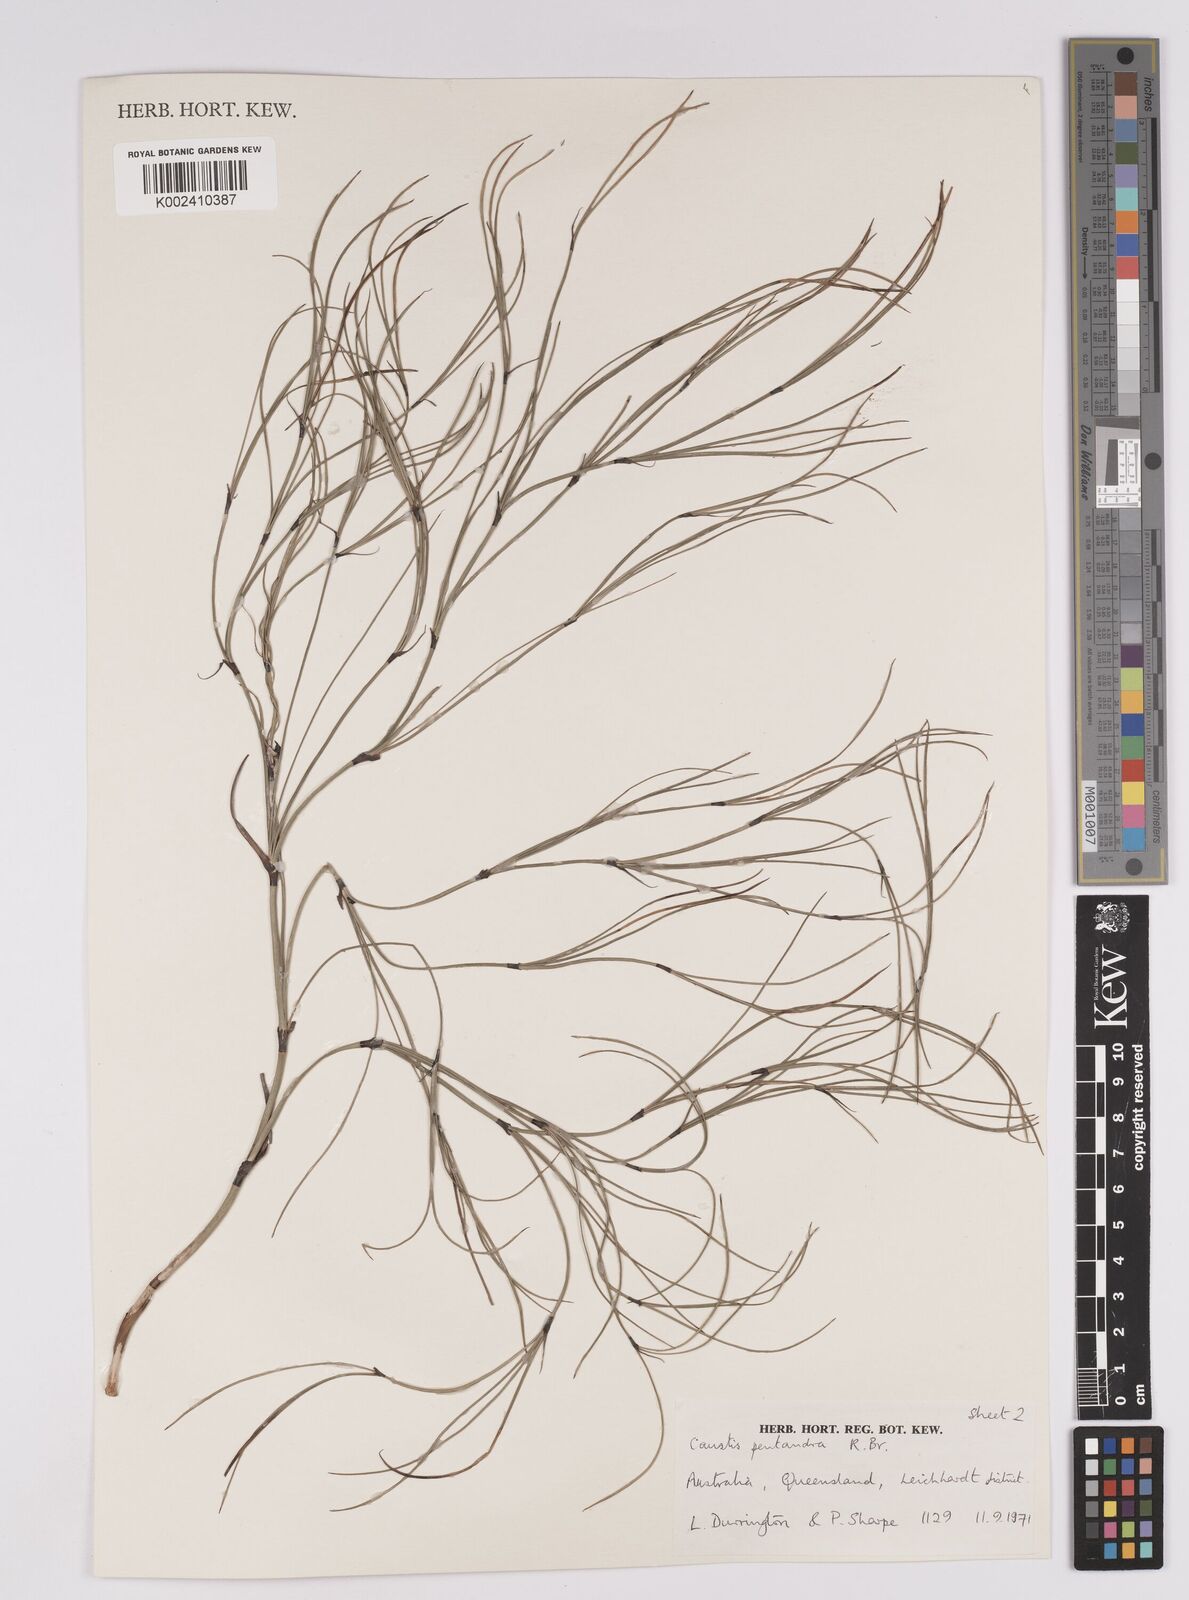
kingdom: Plantae
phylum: Tracheophyta
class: Liliopsida
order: Poales
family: Cyperaceae
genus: Caustis
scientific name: Caustis pentandra
